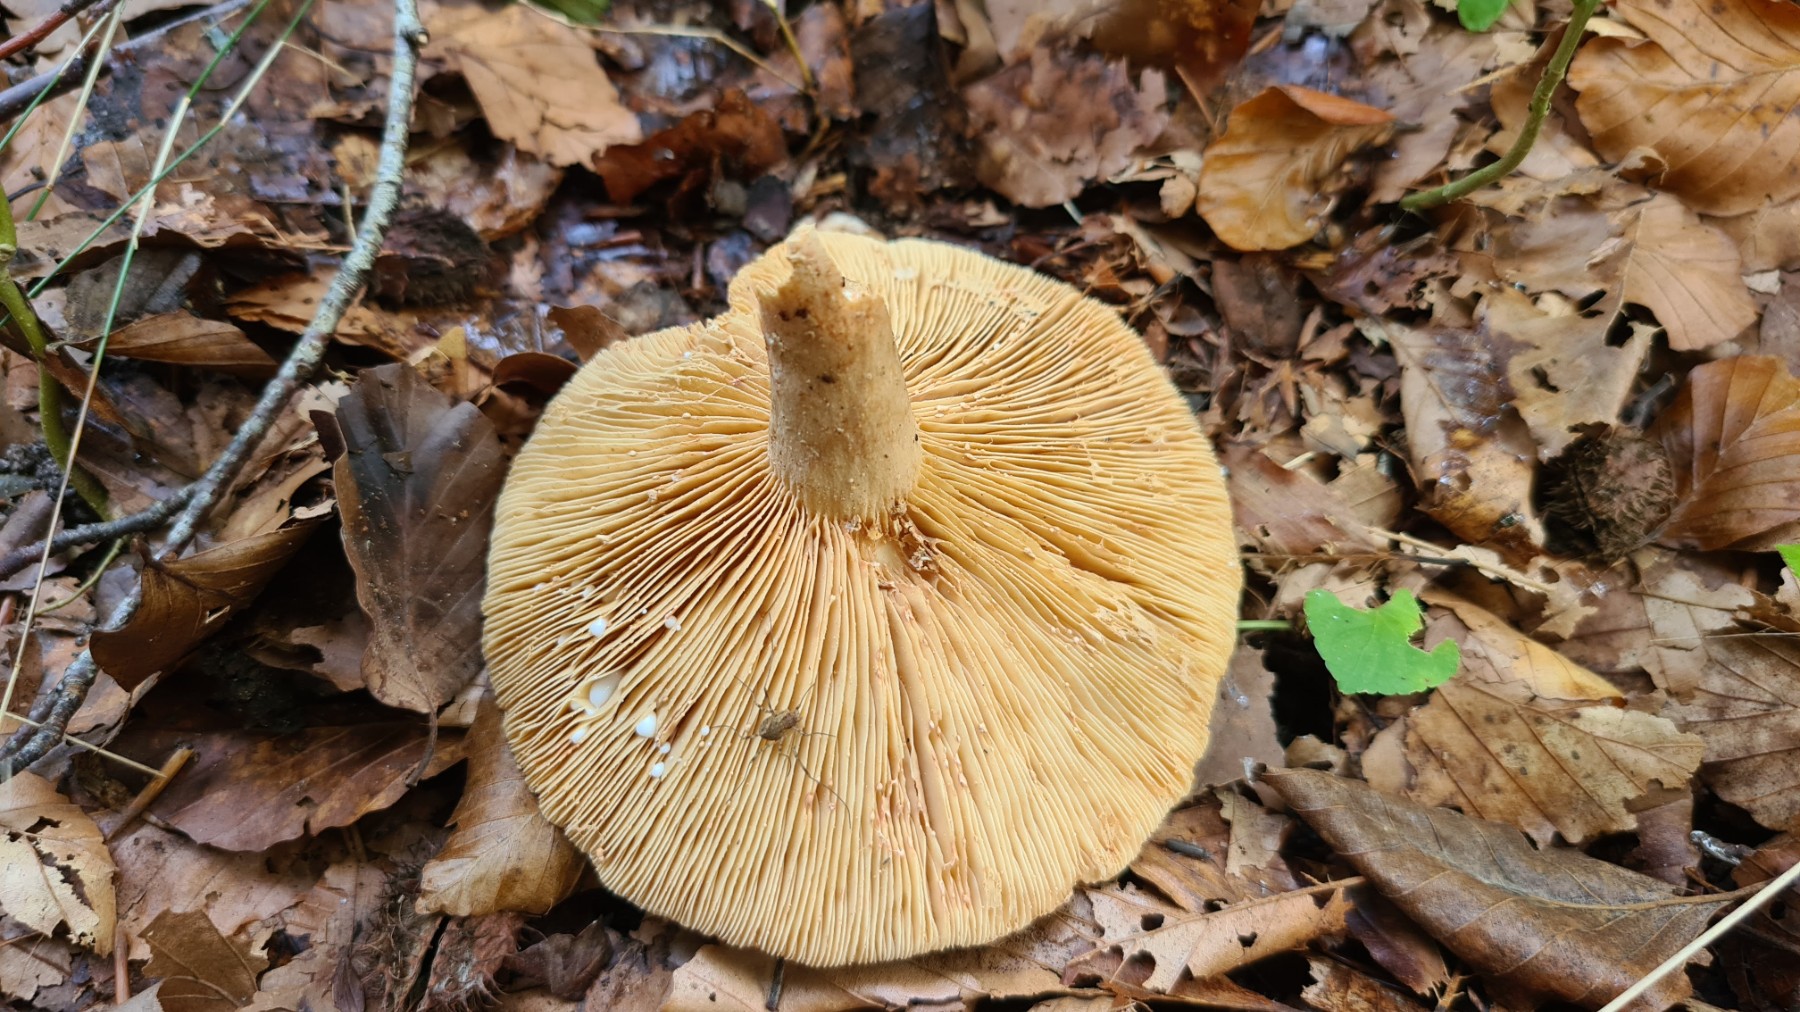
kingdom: Fungi
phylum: Basidiomycota
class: Agaricomycetes
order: Russulales
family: Russulaceae
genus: Lactarius
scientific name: Lactarius acris
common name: rosamælket mælkehat
